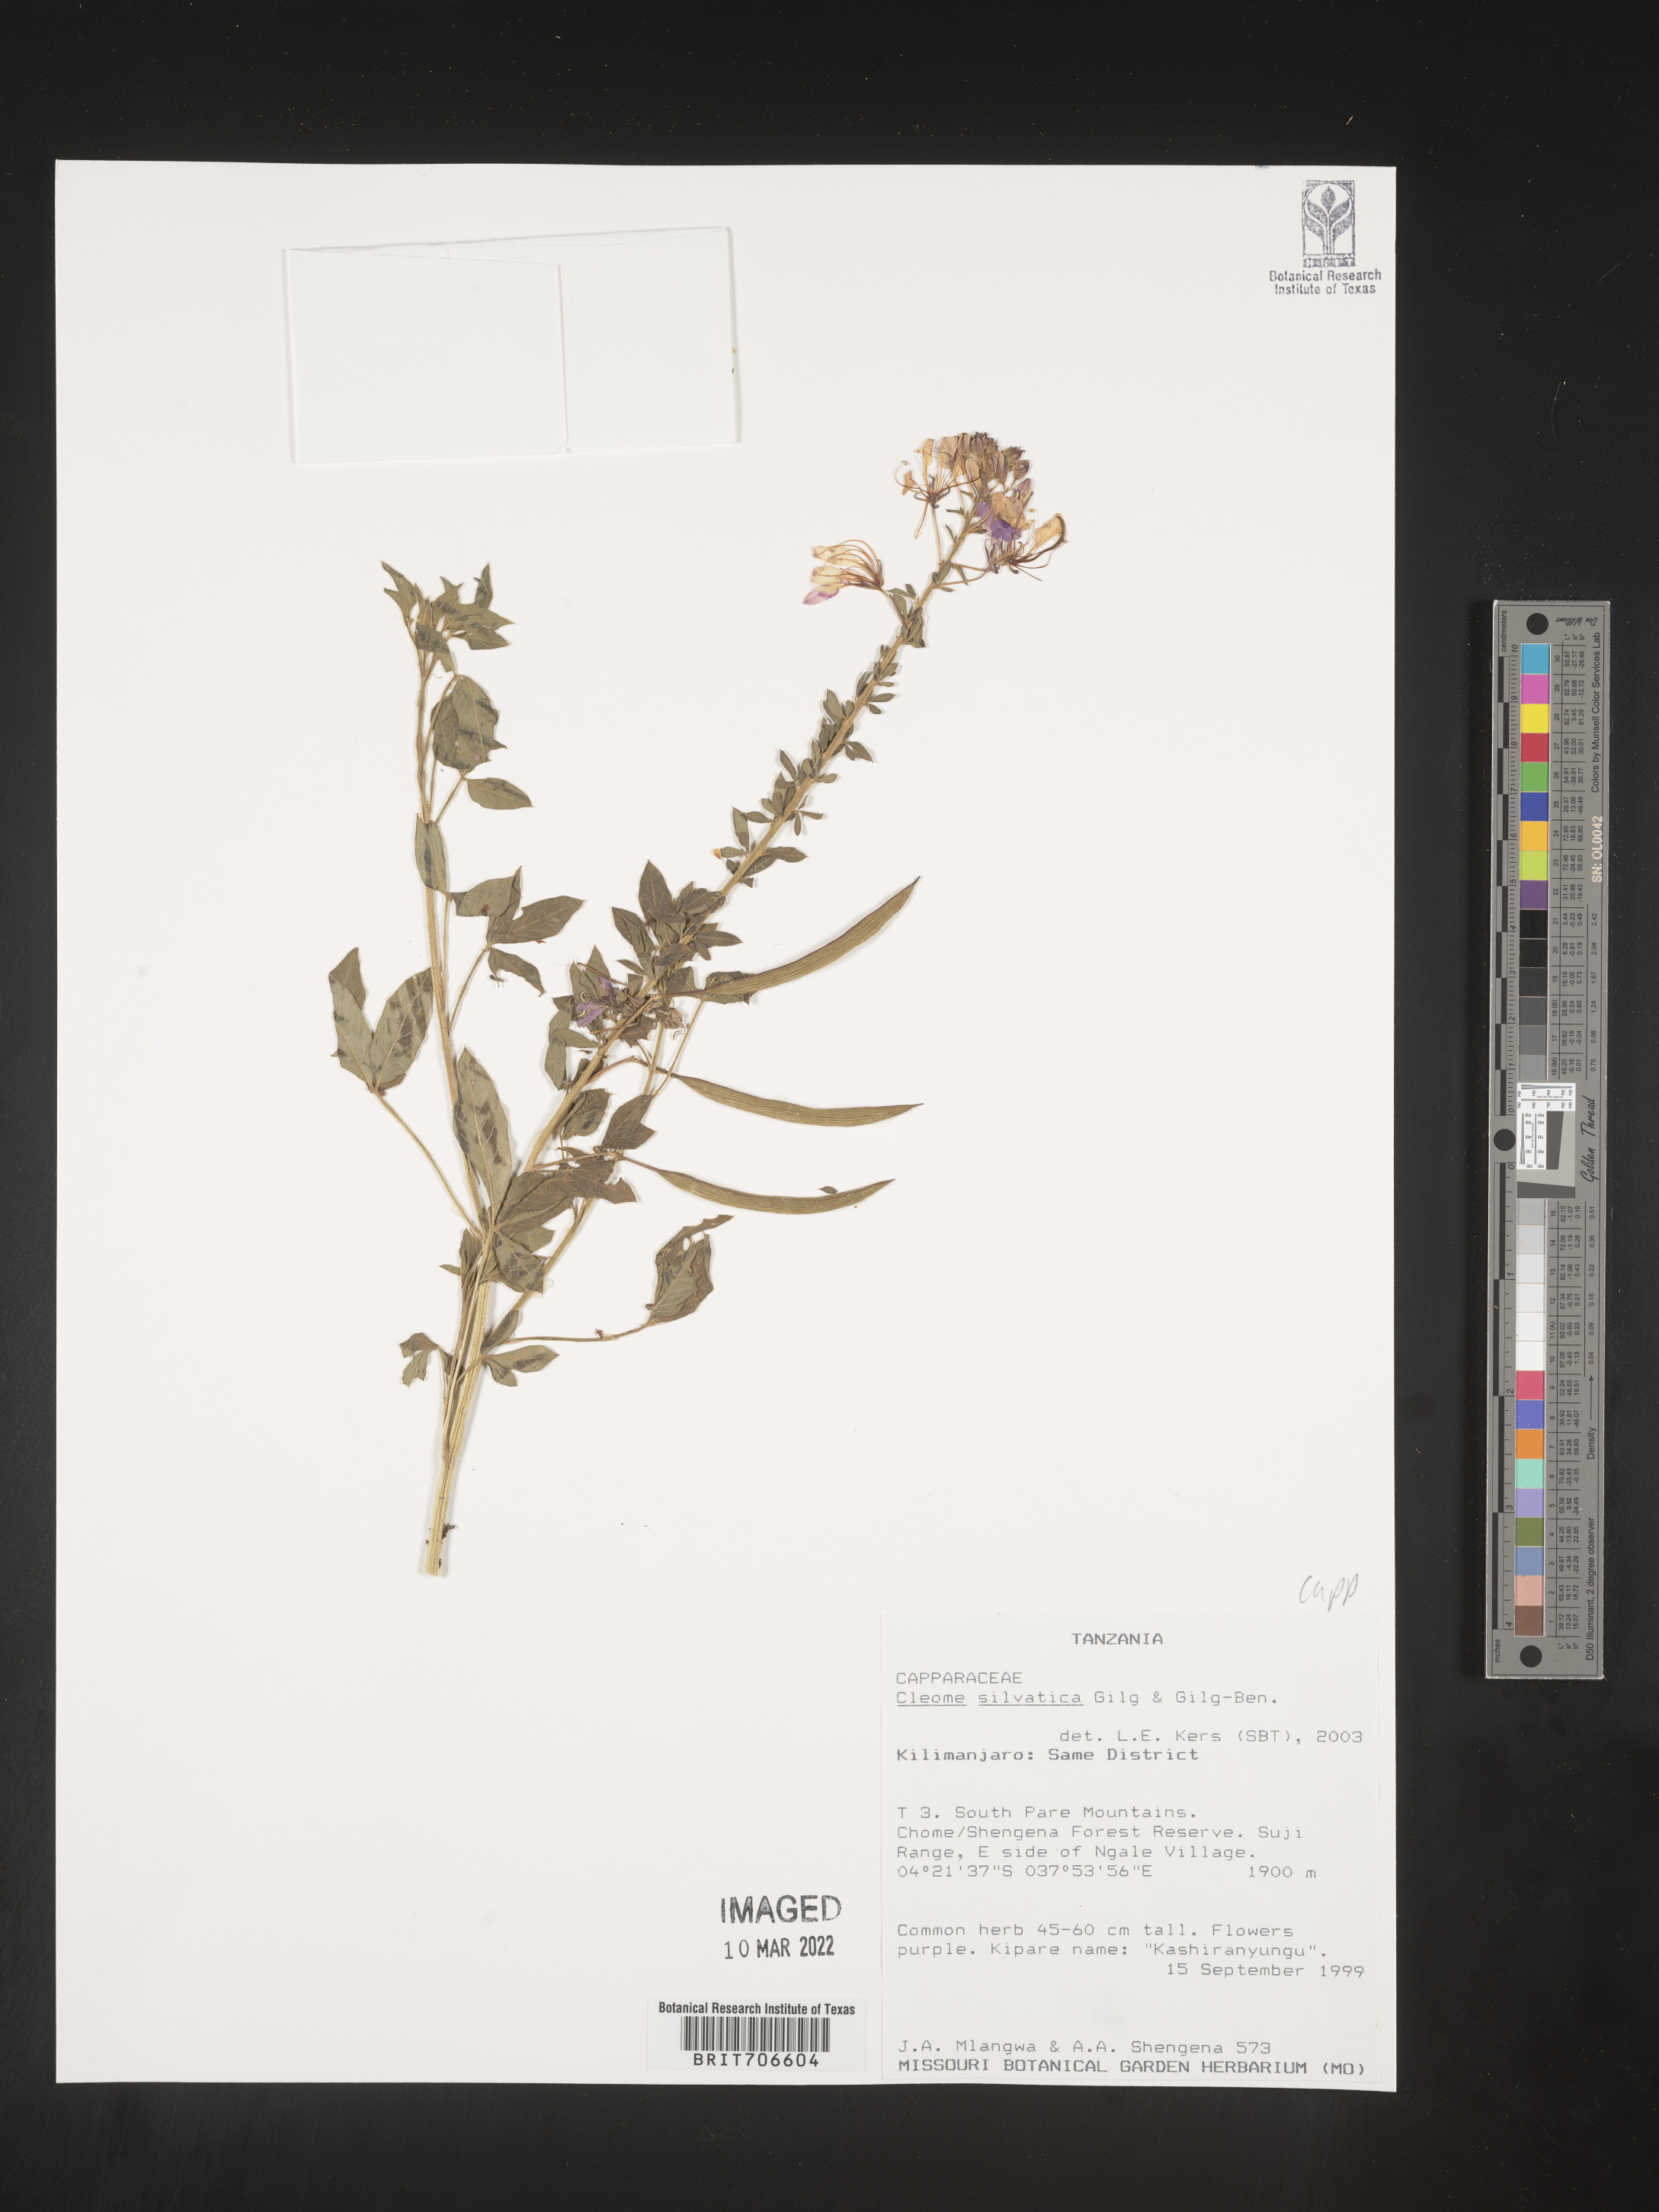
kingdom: Plantae
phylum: Tracheophyta
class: Magnoliopsida
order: Brassicales
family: Cleomaceae
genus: Cleome
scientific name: Cleome
